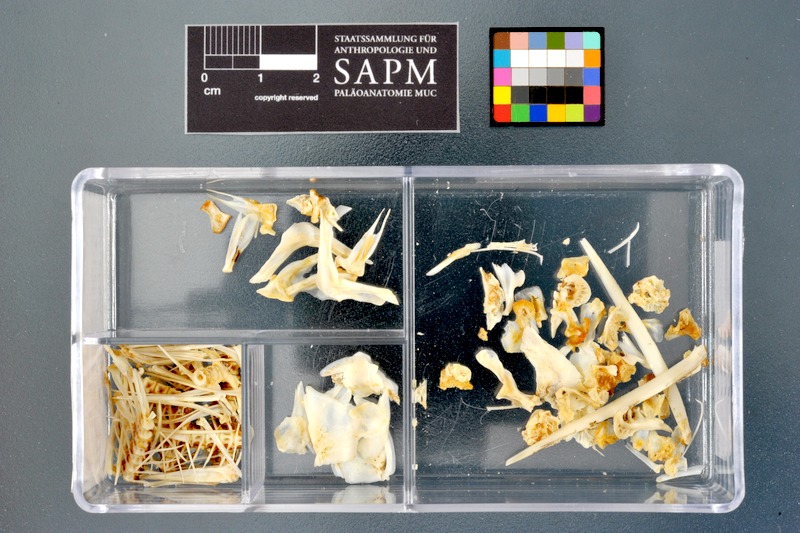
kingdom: Animalia
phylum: Chordata
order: Cypriniformes
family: Cyprinidae
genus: Labeobarbus
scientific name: Labeobarbus bynni
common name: Barbel
